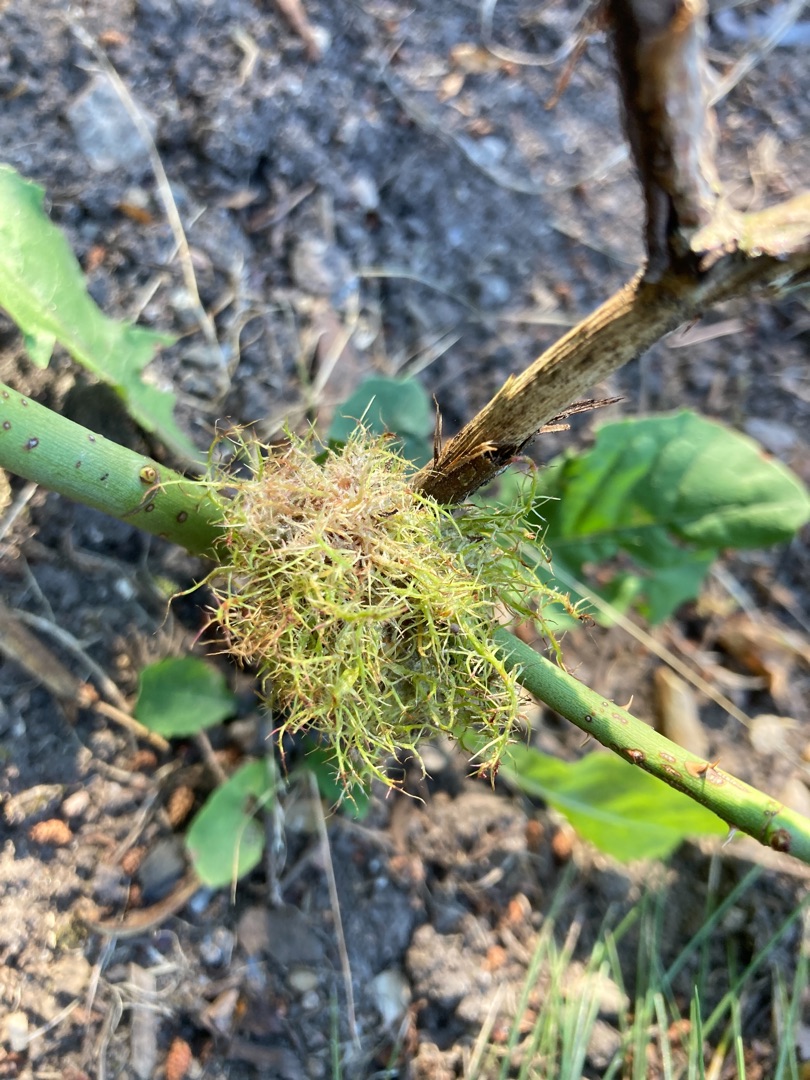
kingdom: Animalia
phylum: Arthropoda
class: Insecta
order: Hymenoptera
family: Cynipidae
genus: Diplolepis
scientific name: Diplolepis rosae
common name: Bedeguargalhveps
